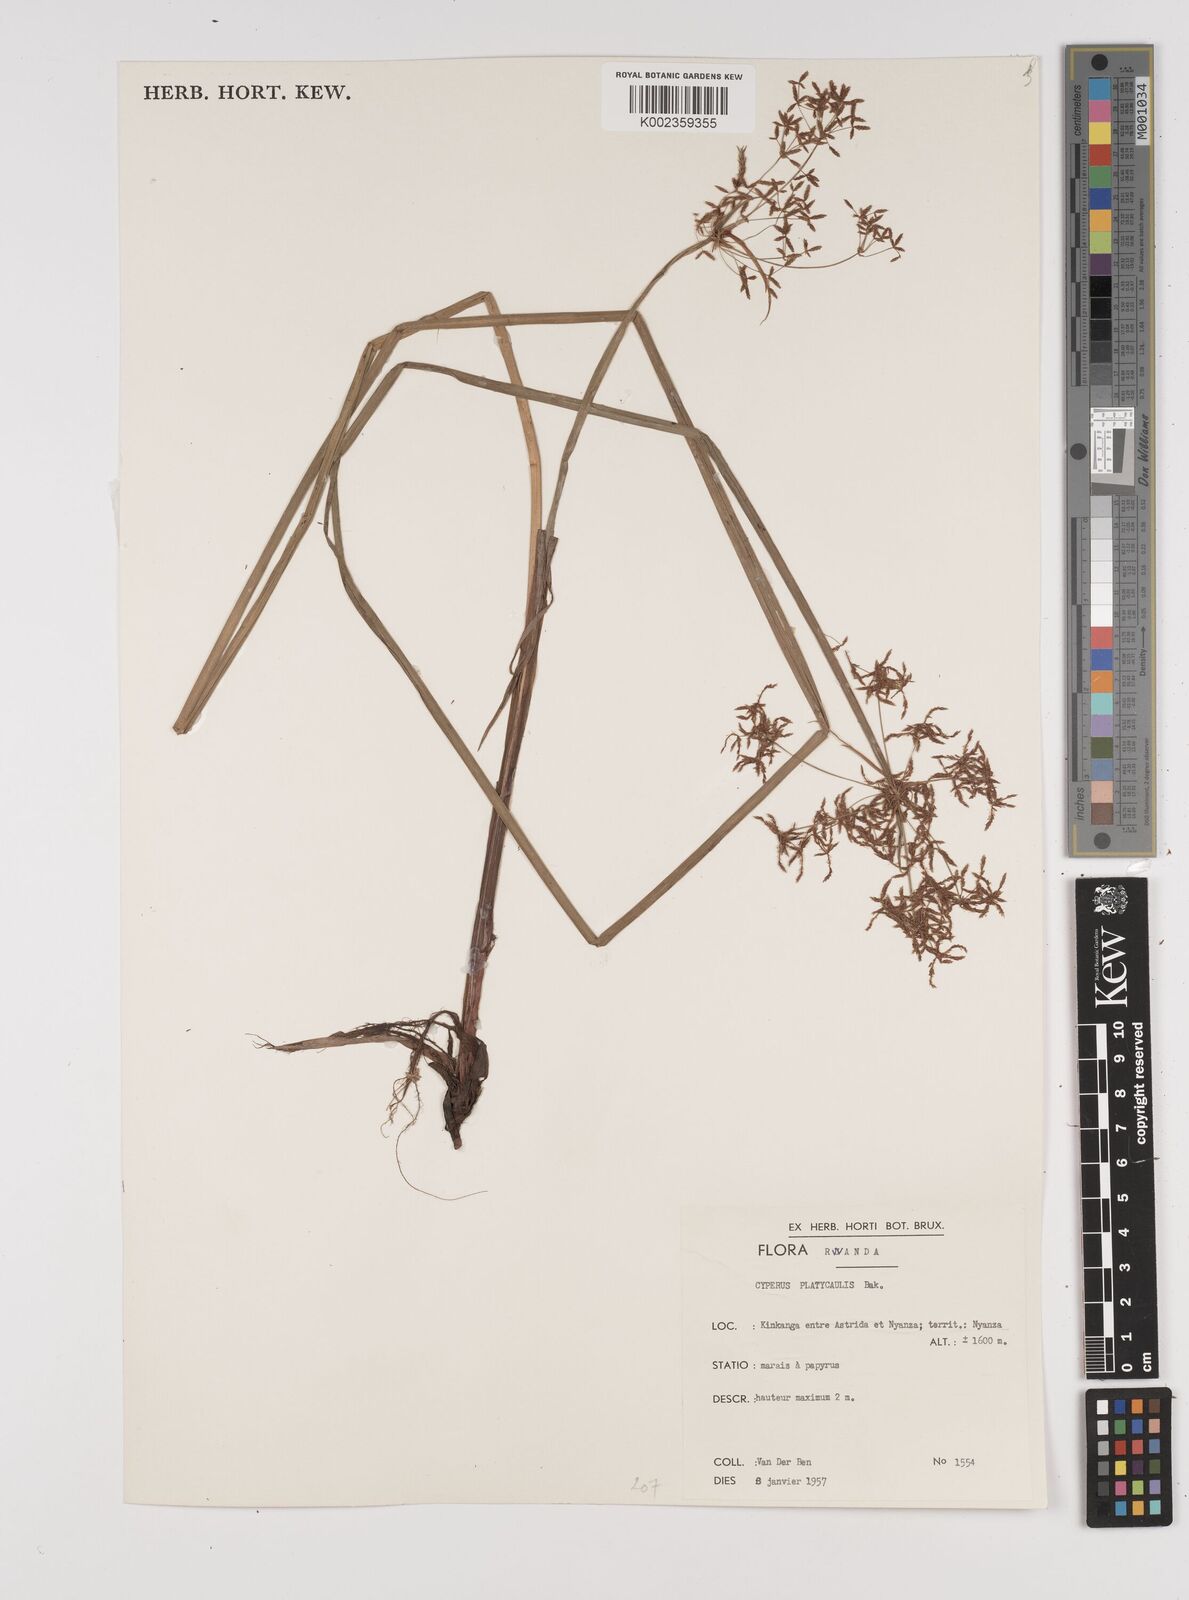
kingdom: Plantae
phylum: Tracheophyta
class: Liliopsida
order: Poales
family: Cyperaceae
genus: Cyperus
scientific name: Cyperus platycaulis
